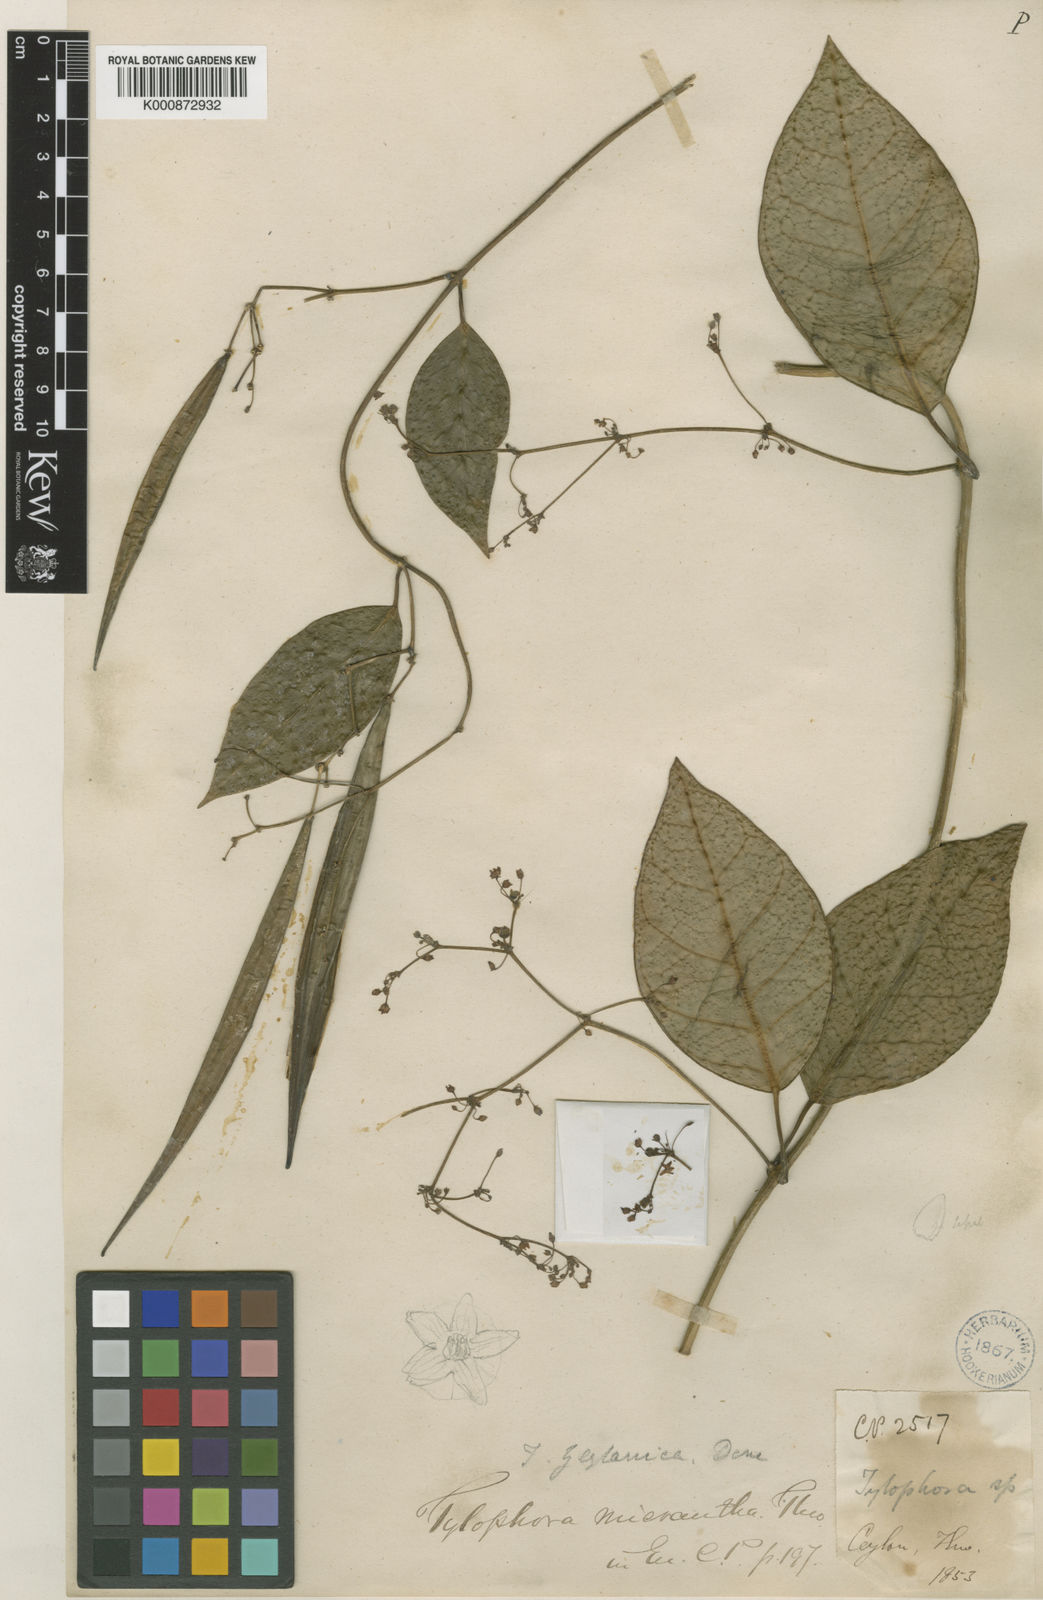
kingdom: Plantae
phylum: Tracheophyta
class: Magnoliopsida
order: Gentianales
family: Apocynaceae
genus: Vincetoxicum
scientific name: Vincetoxicum zeylanicum
